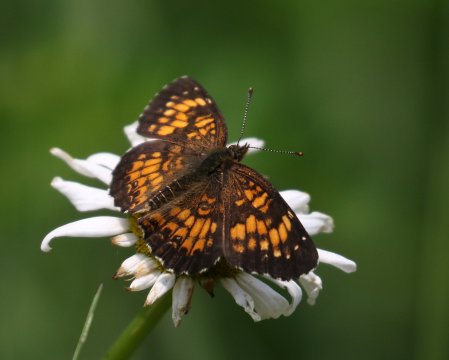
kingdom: Animalia
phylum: Arthropoda
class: Insecta
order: Lepidoptera
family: Nymphalidae
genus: Chlosyne
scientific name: Chlosyne harrisii
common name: Harris's Checkerspot
